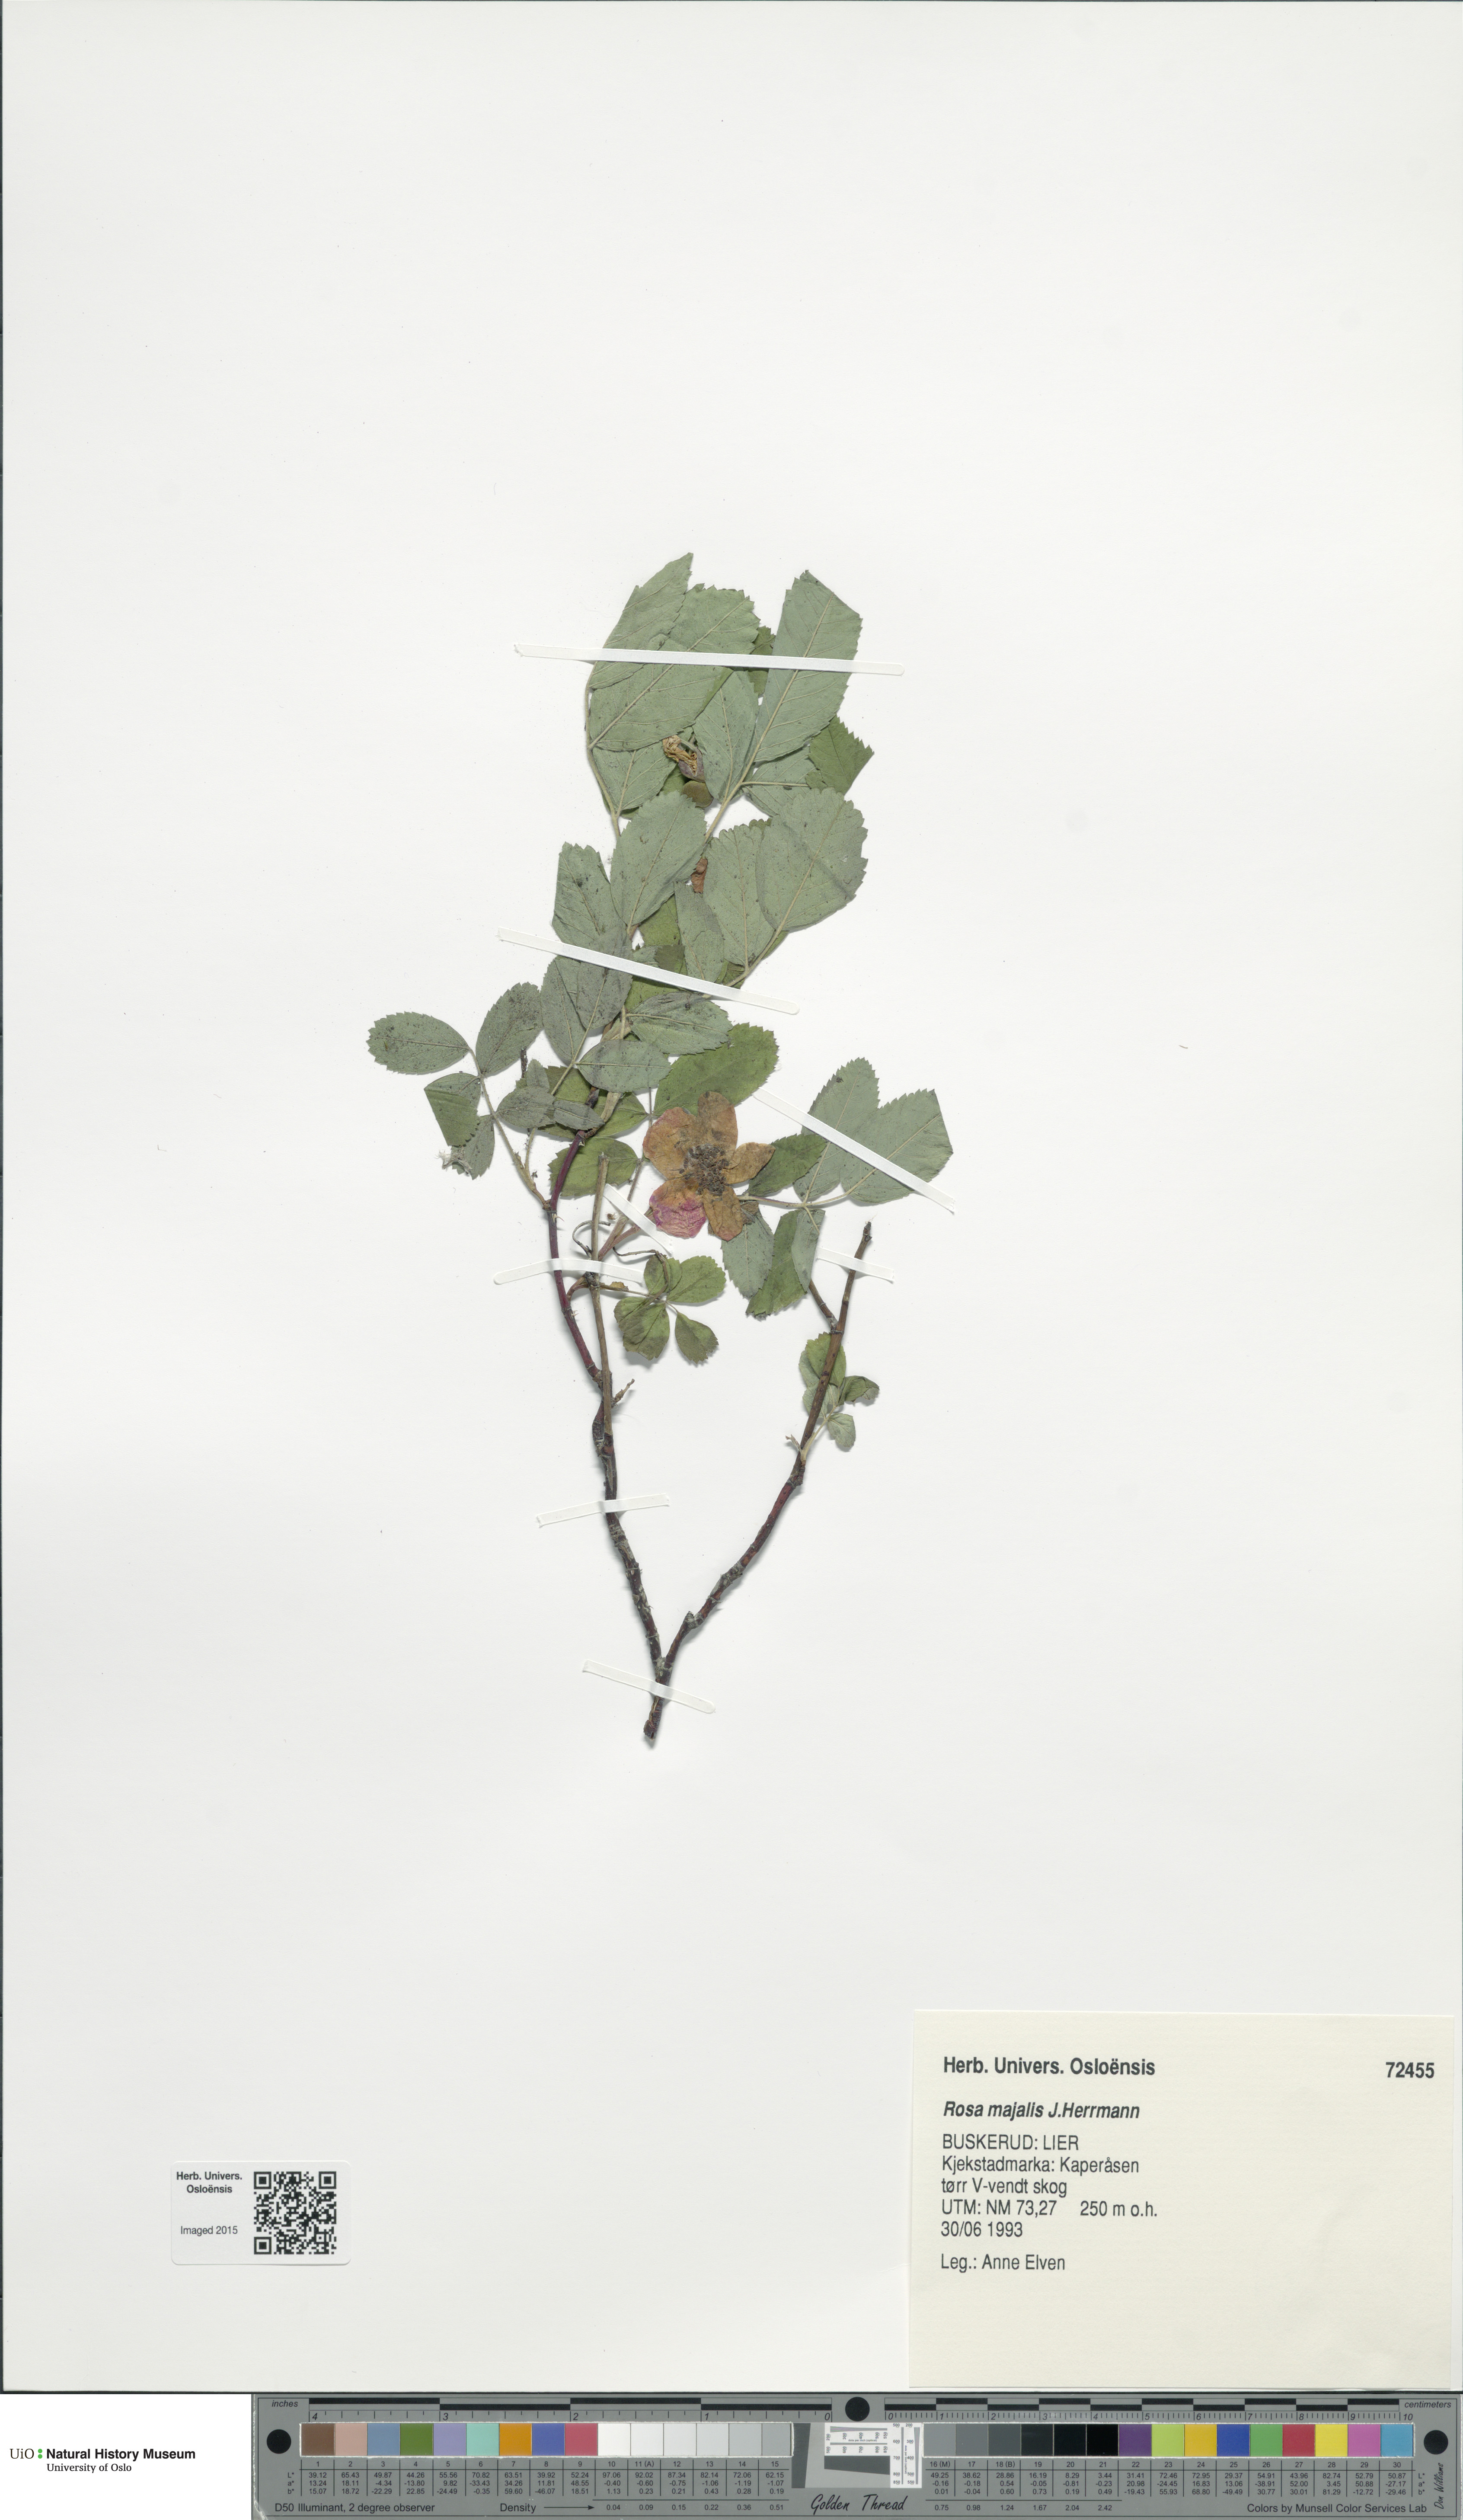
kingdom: Plantae
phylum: Tracheophyta
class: Magnoliopsida
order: Rosales
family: Rosaceae
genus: Rosa
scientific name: Rosa majalis
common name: Cinnamon rose
